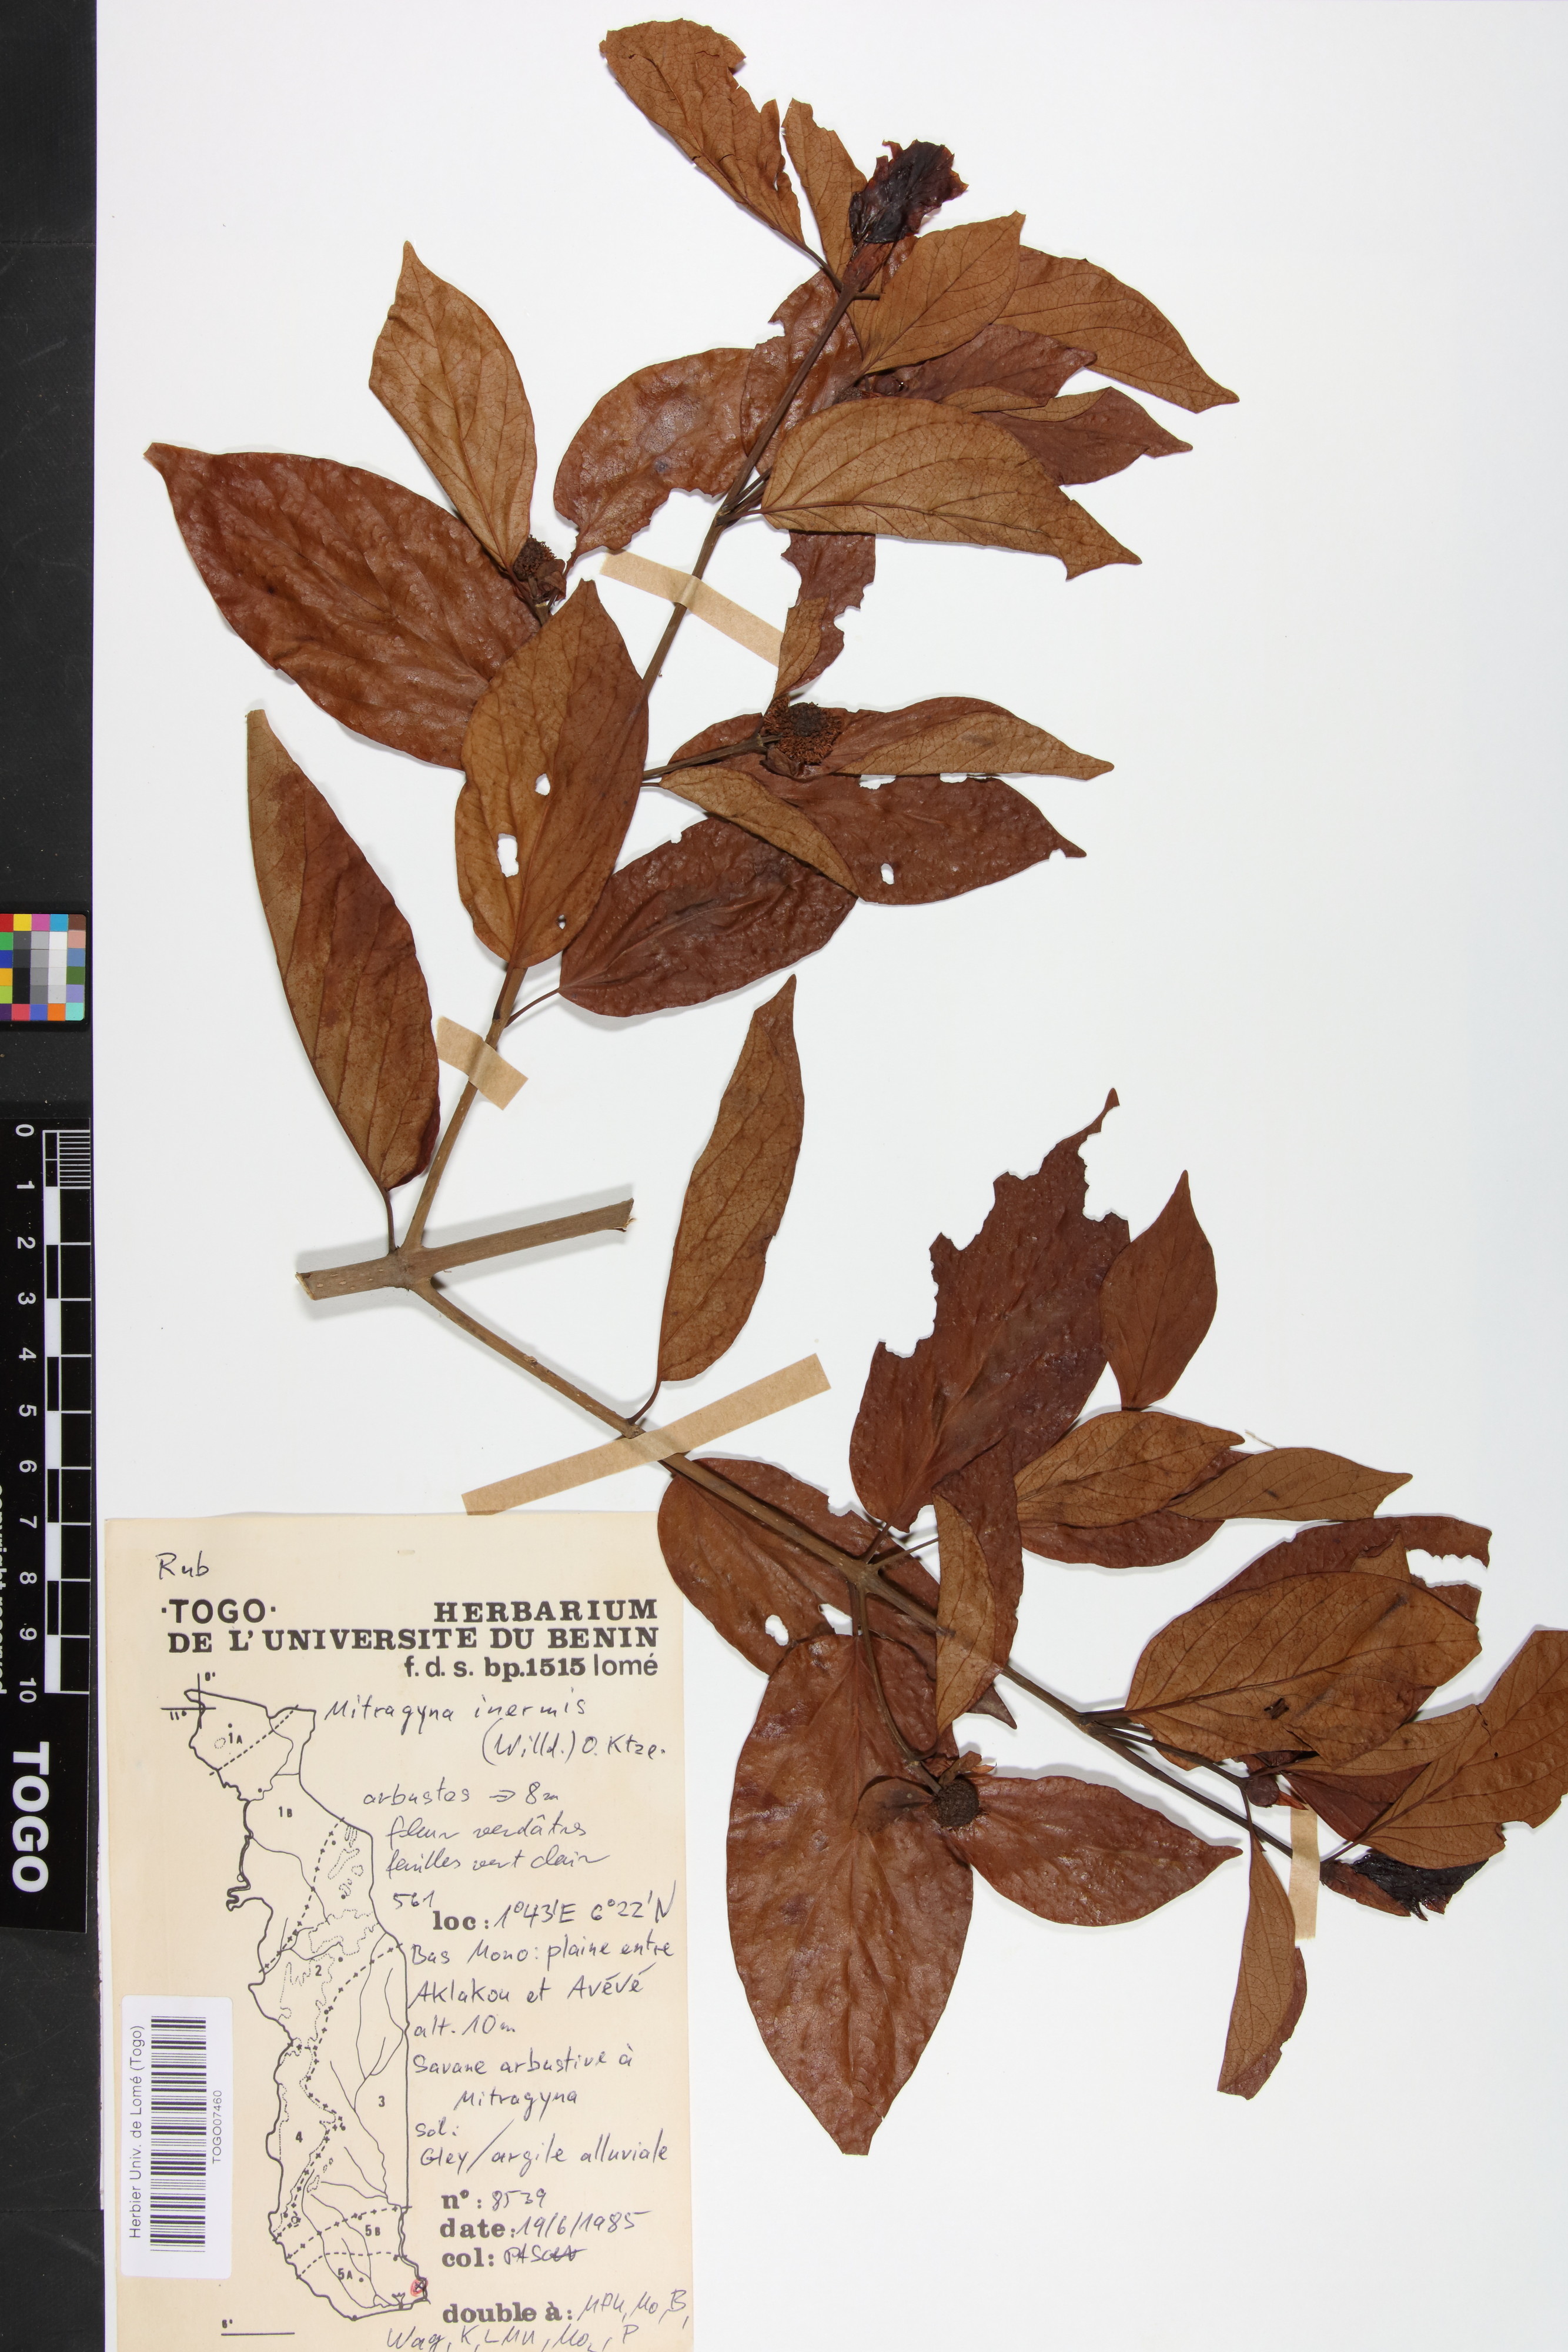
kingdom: Plantae
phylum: Tracheophyta
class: Magnoliopsida
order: Gentianales
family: Rubiaceae
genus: Mitragyna
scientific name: Mitragyna inermis
